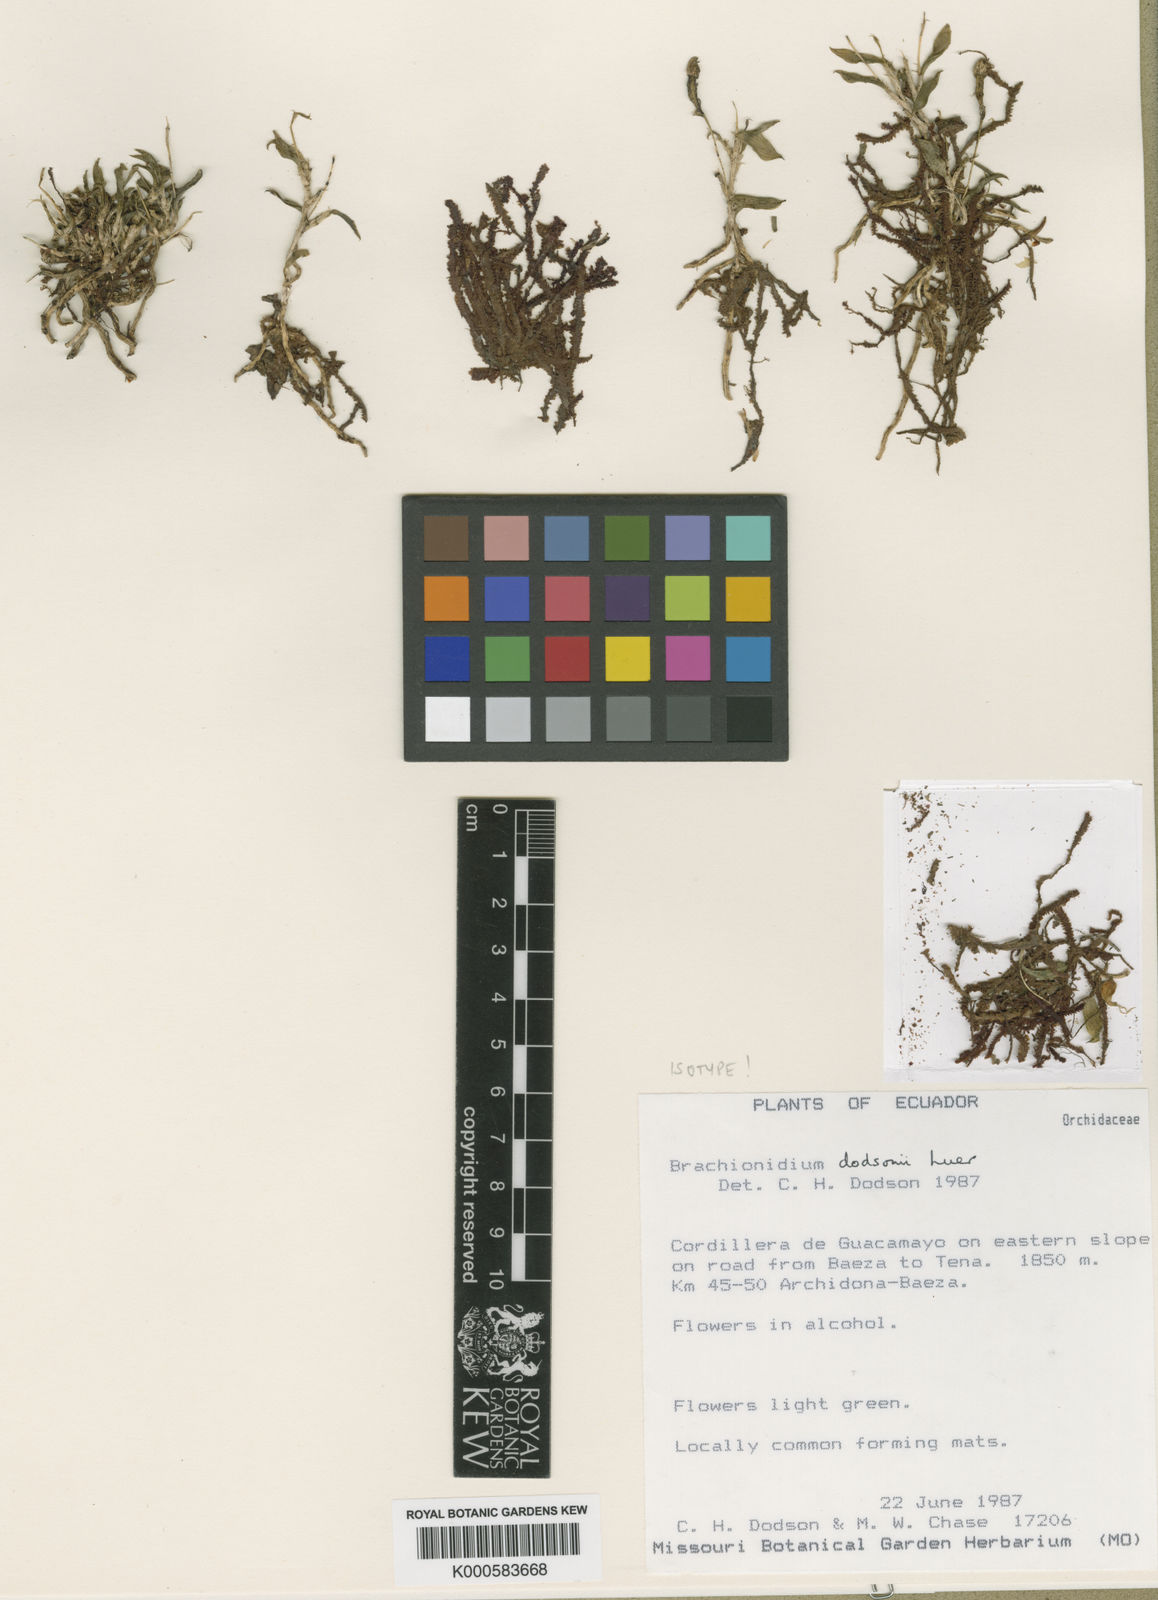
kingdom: Plantae
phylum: Tracheophyta
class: Liliopsida
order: Asparagales
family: Orchidaceae
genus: Brachionidium
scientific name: Brachionidium
